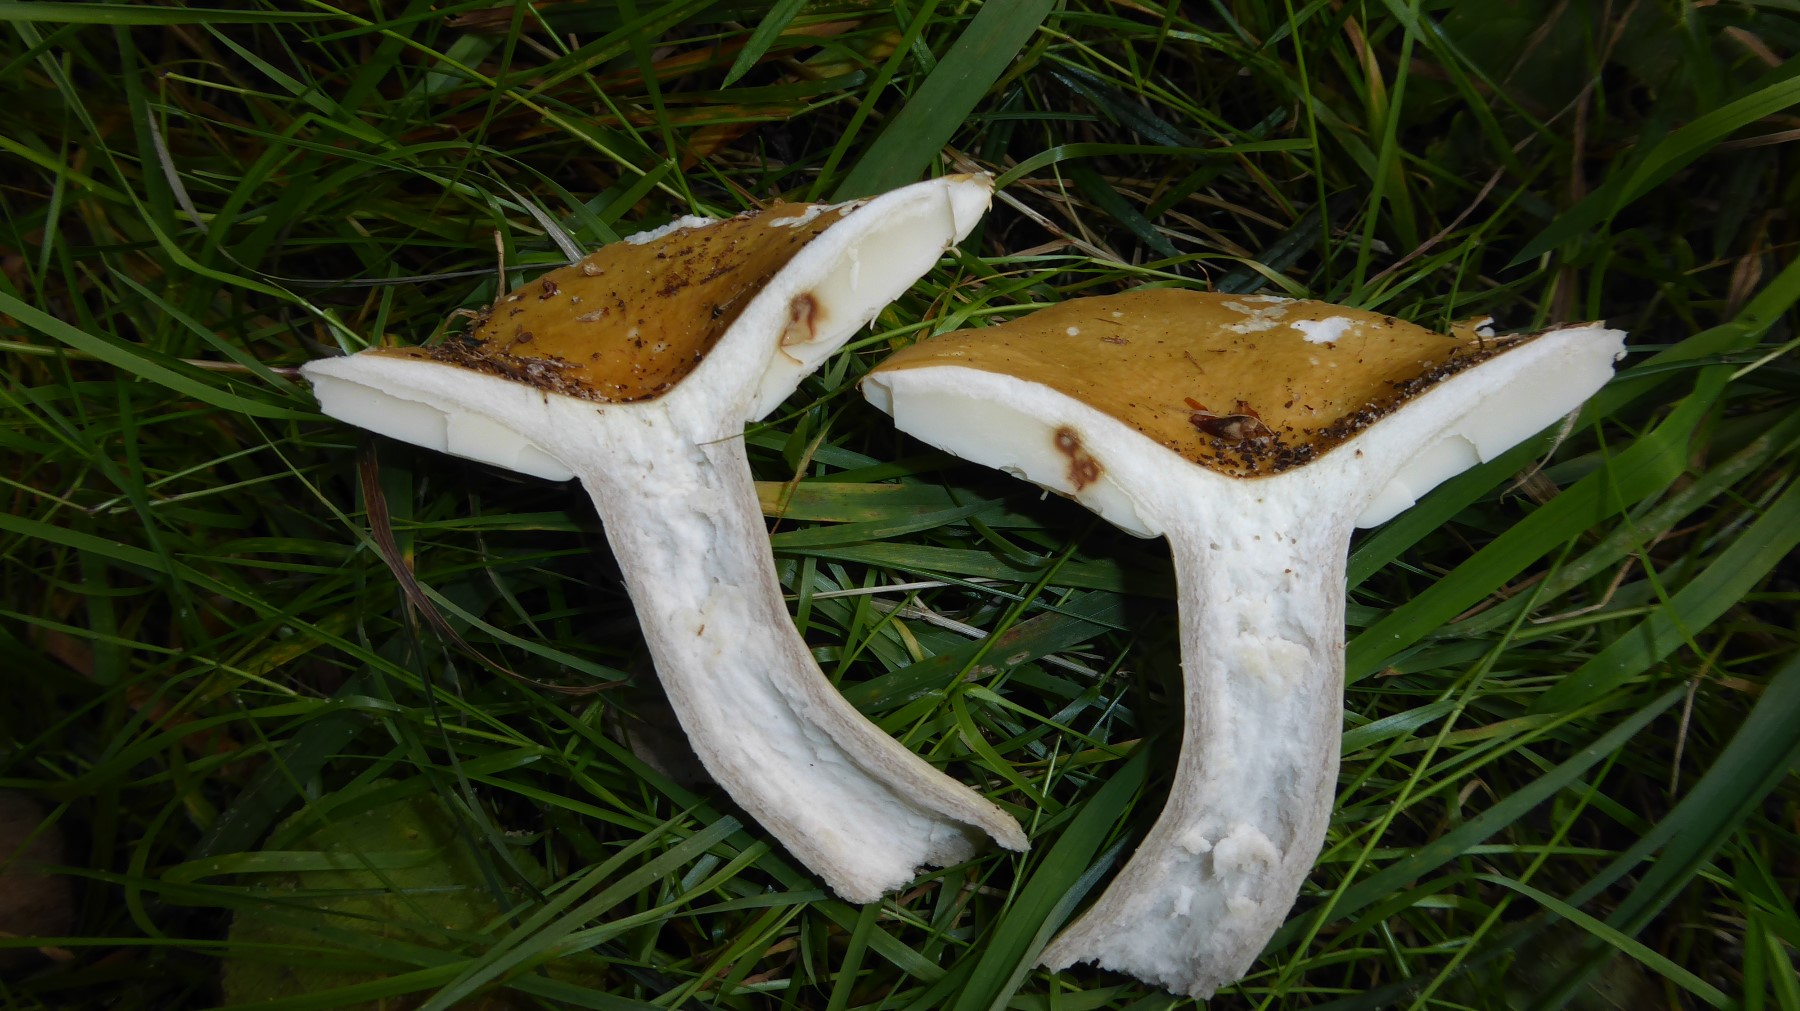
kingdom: Fungi
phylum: Basidiomycota
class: Agaricomycetes
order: Russulales
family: Russulaceae
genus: Russula
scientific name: Russula ochroleuca
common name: okkergul skørhat
